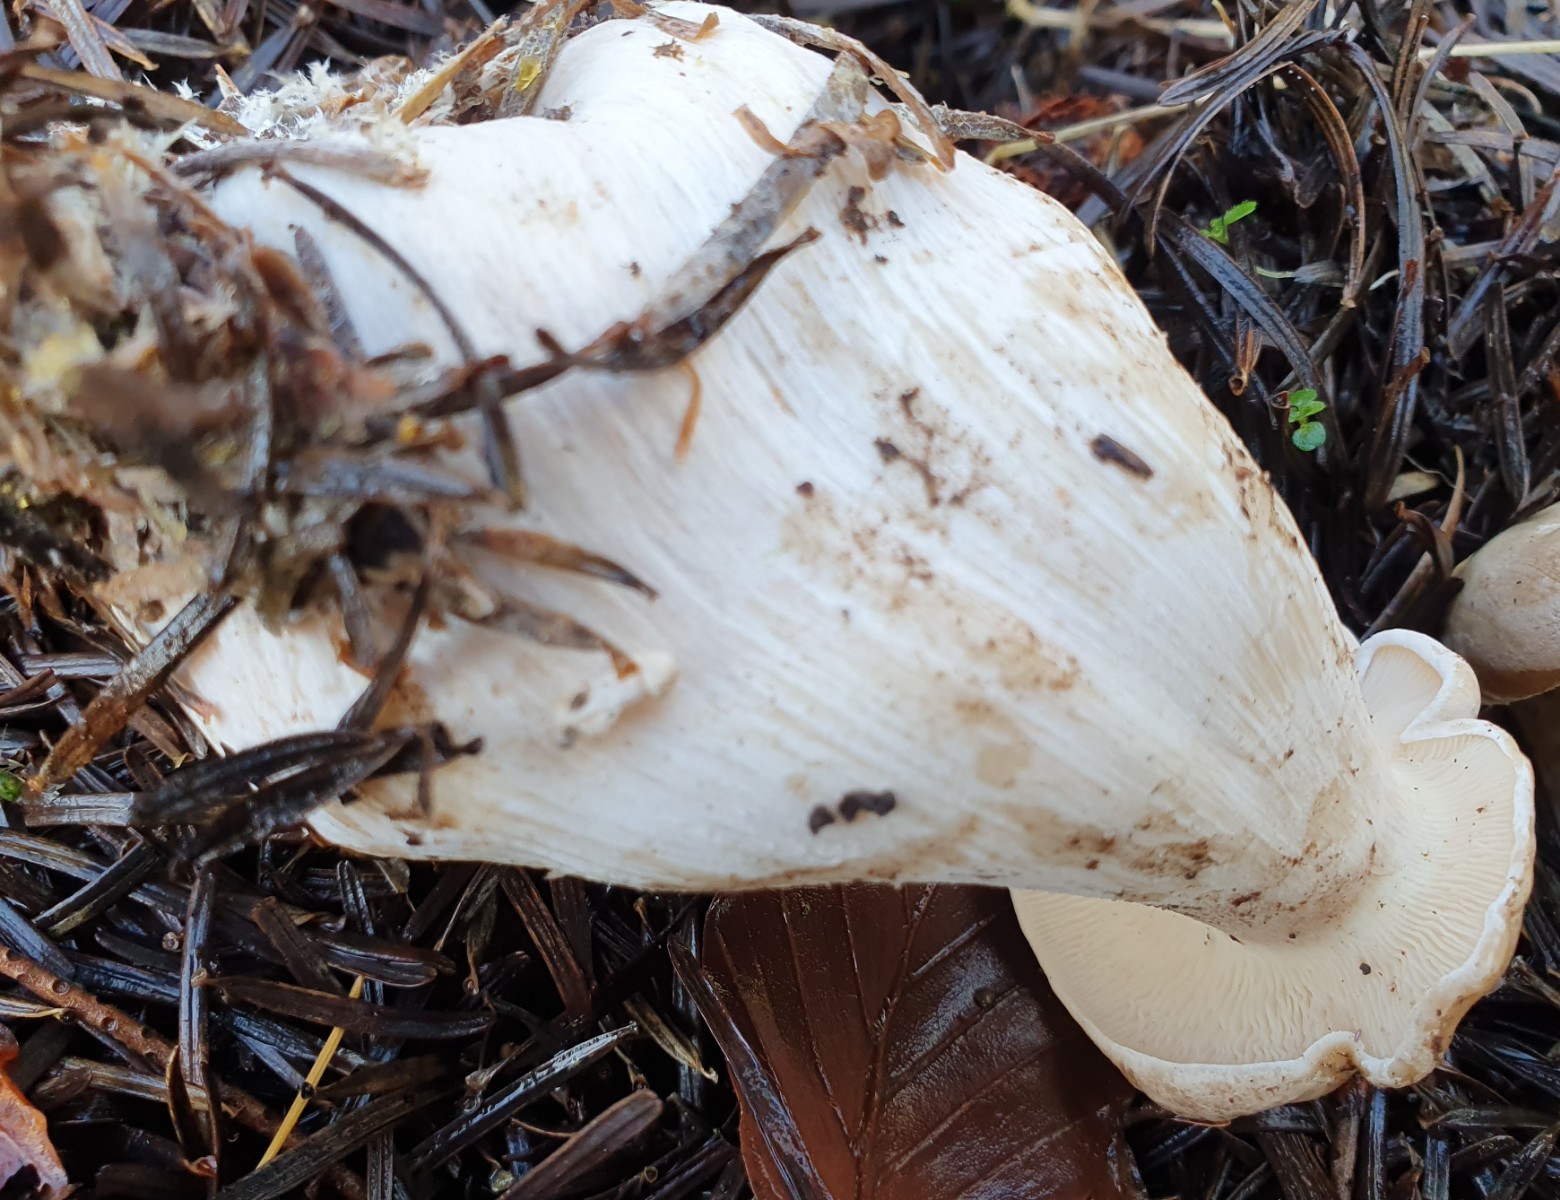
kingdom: Fungi
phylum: Basidiomycota
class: Agaricomycetes
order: Agaricales
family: Tricholomataceae
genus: Clitocybe
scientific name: Clitocybe nebularis
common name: tåge-tragthat
